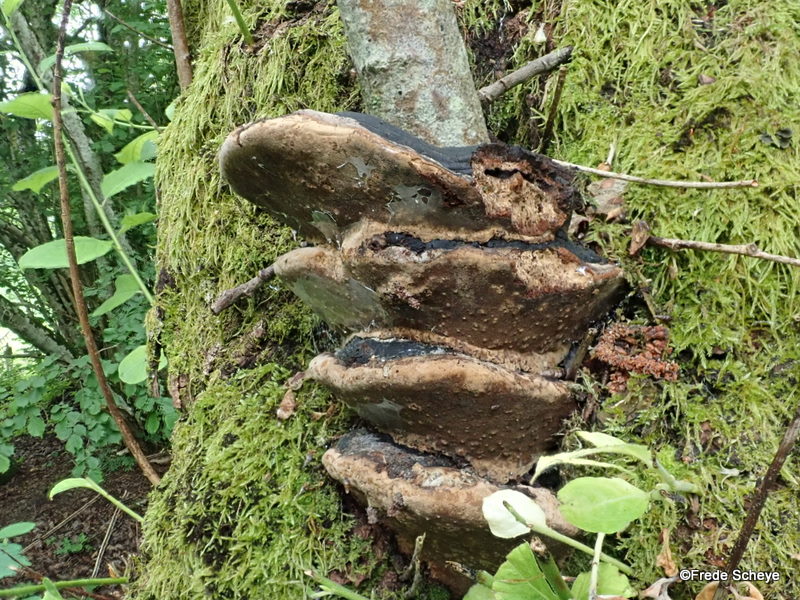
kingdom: Fungi
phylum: Basidiomycota
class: Agaricomycetes
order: Hymenochaetales
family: Hymenochaetaceae
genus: Phellinus
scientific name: Phellinus pomaceus
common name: blomme-ildporesvamp
